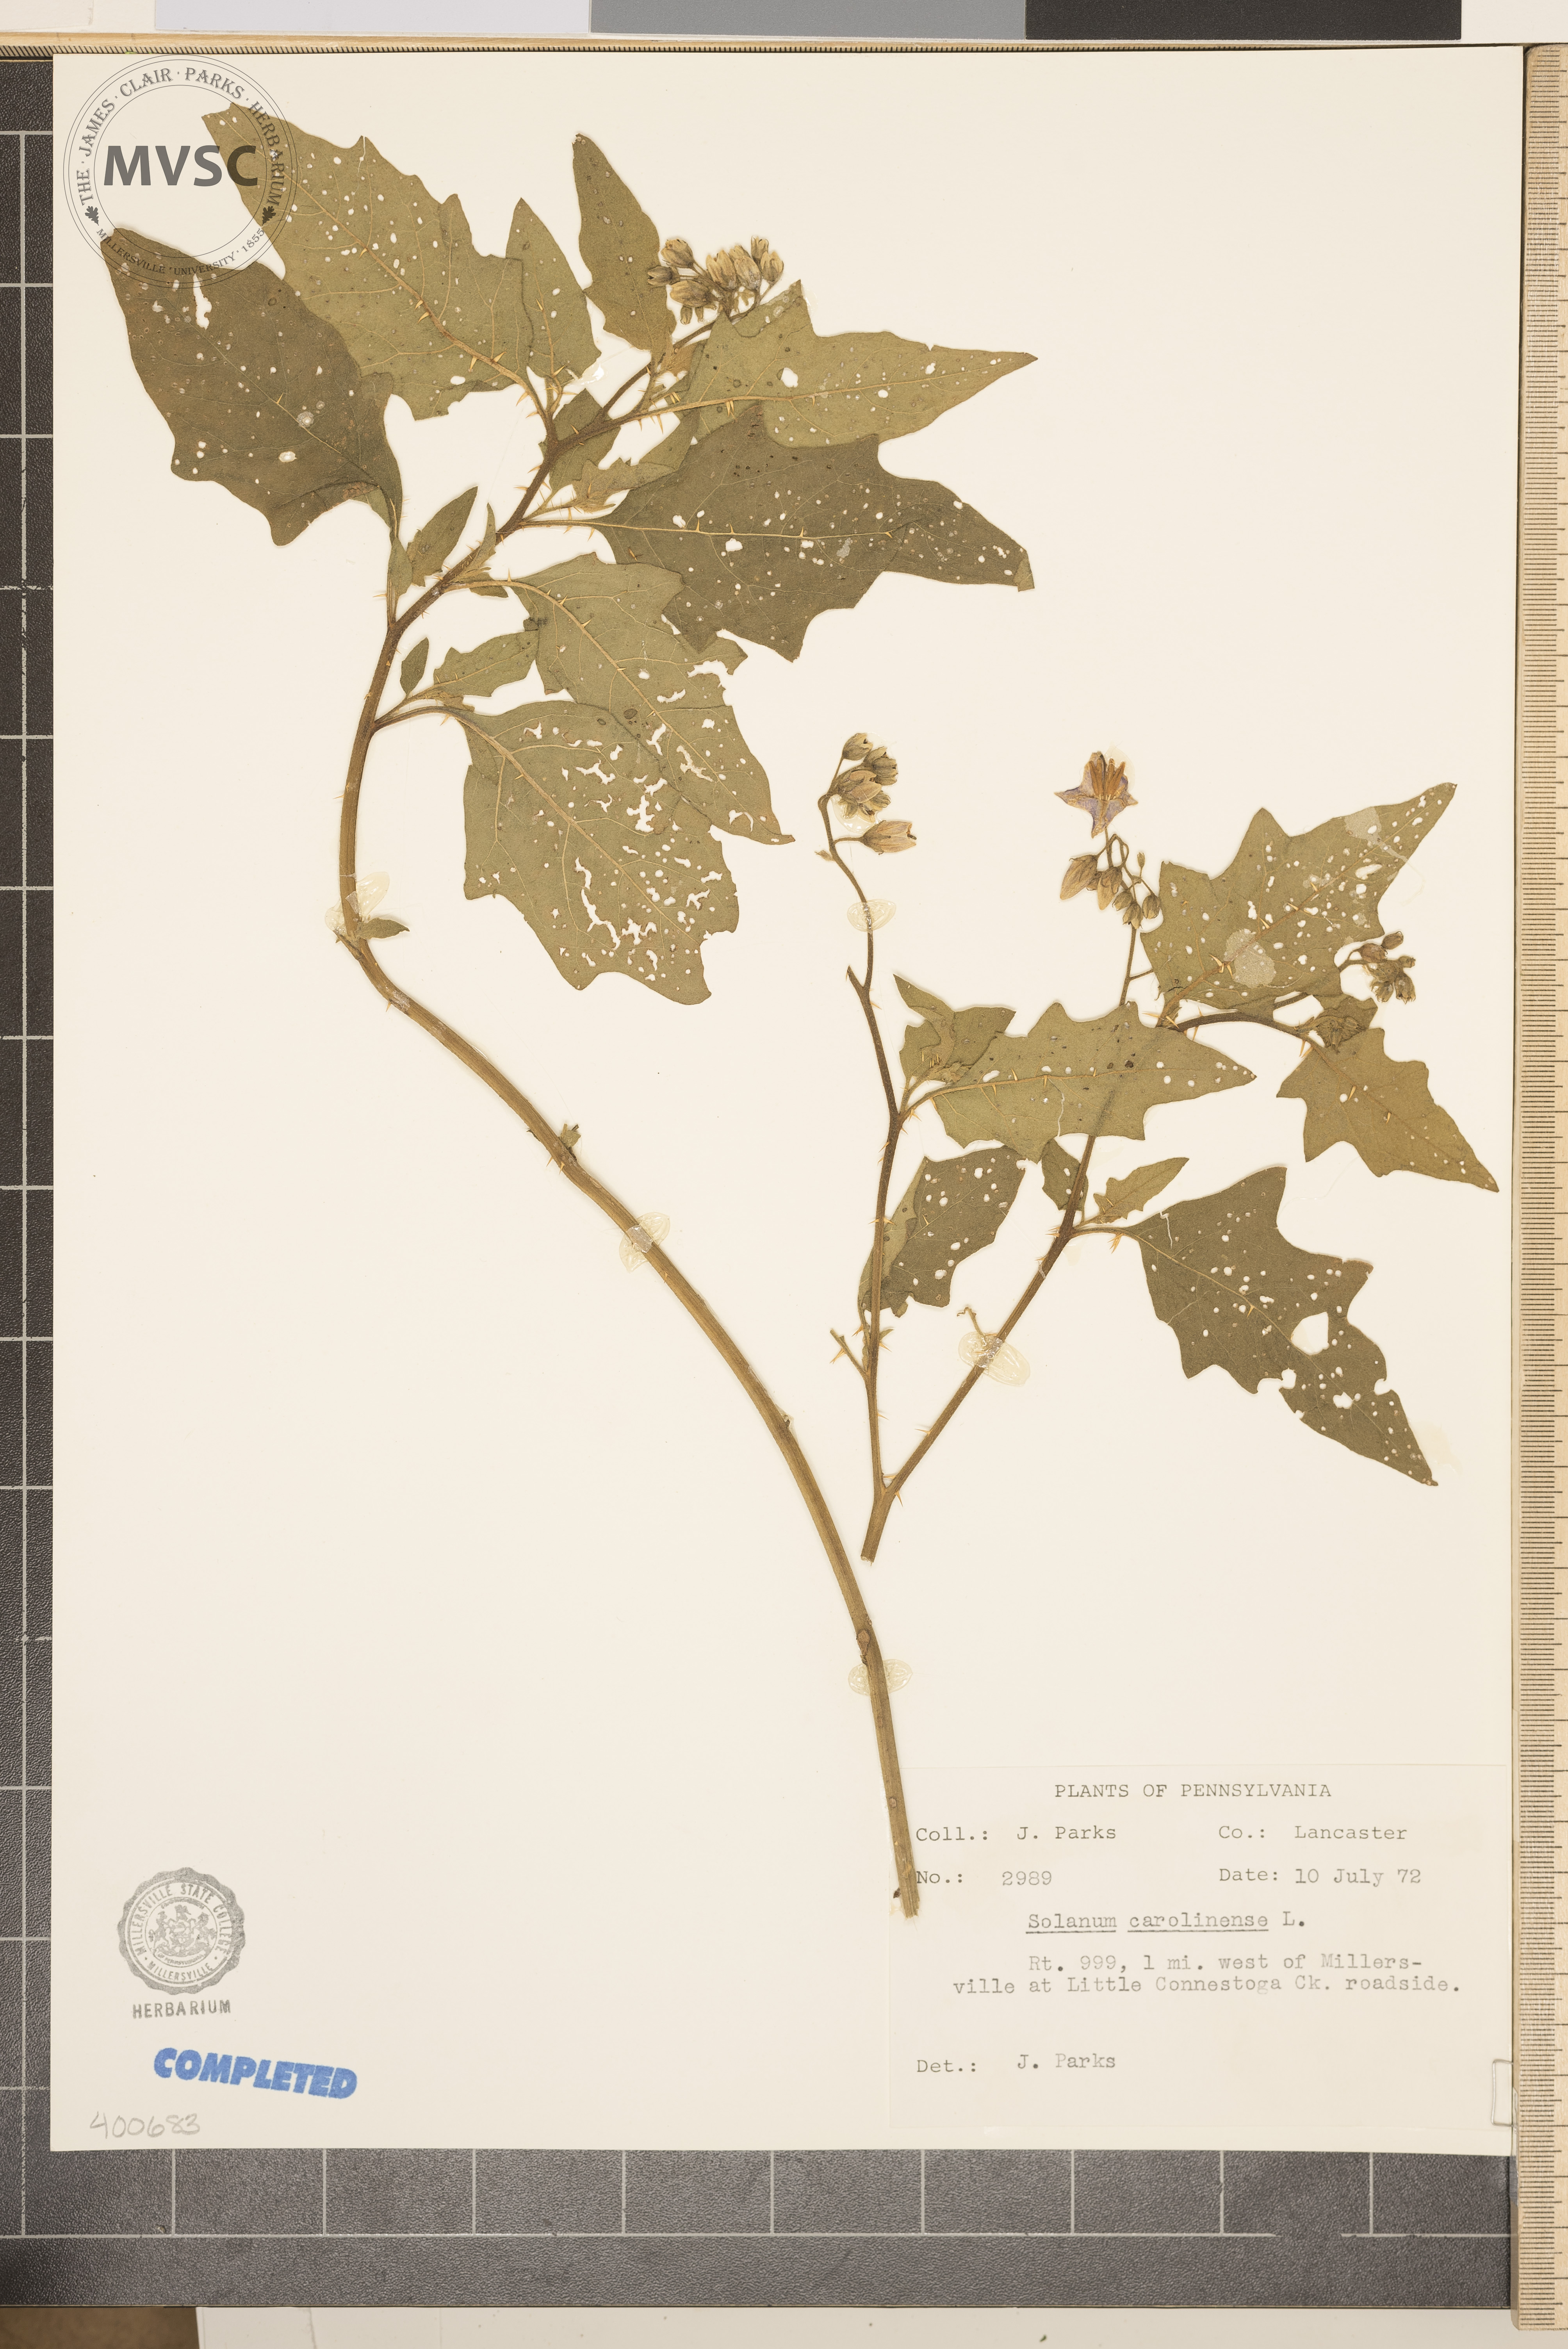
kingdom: Plantae
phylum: Tracheophyta
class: Magnoliopsida
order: Solanales
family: Solanaceae
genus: Solanum
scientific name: Solanum carolinense
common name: horsenettle
